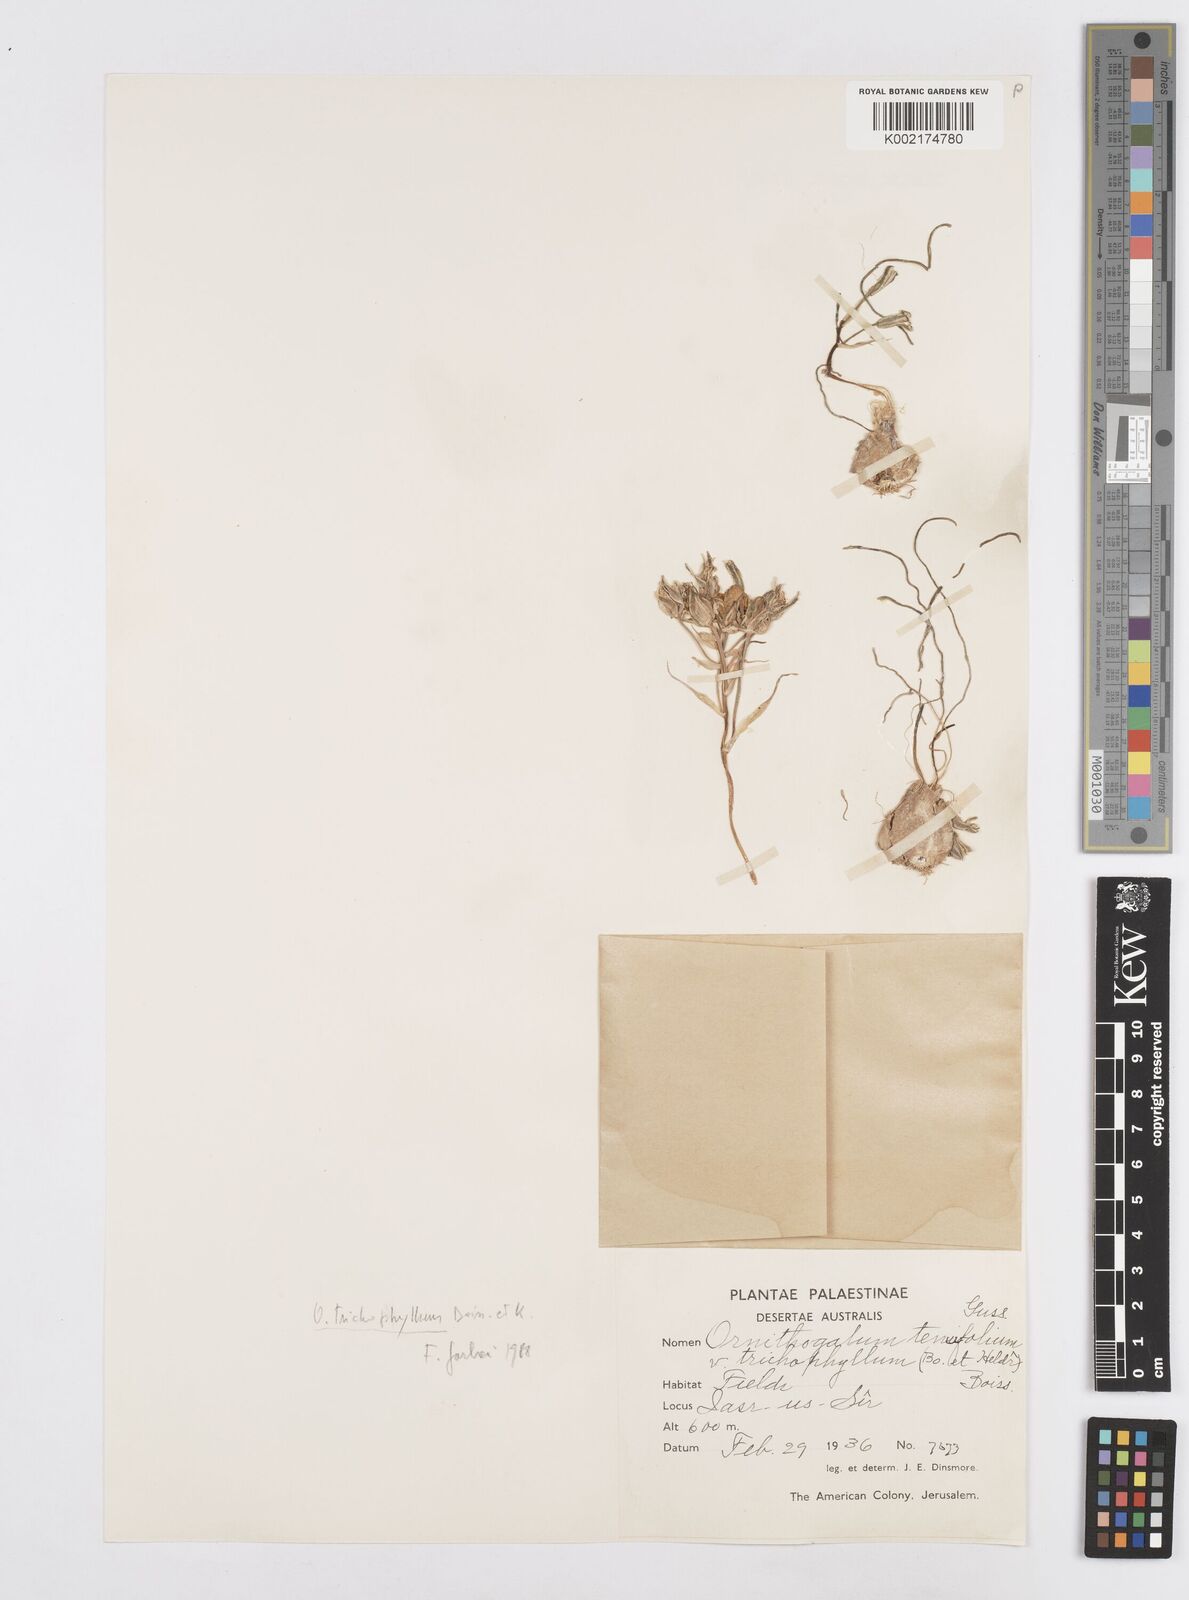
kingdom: Plantae
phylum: Tracheophyta
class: Liliopsida
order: Asparagales
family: Asparagaceae
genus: Ornithogalum
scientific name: Ornithogalum trichophyllum
